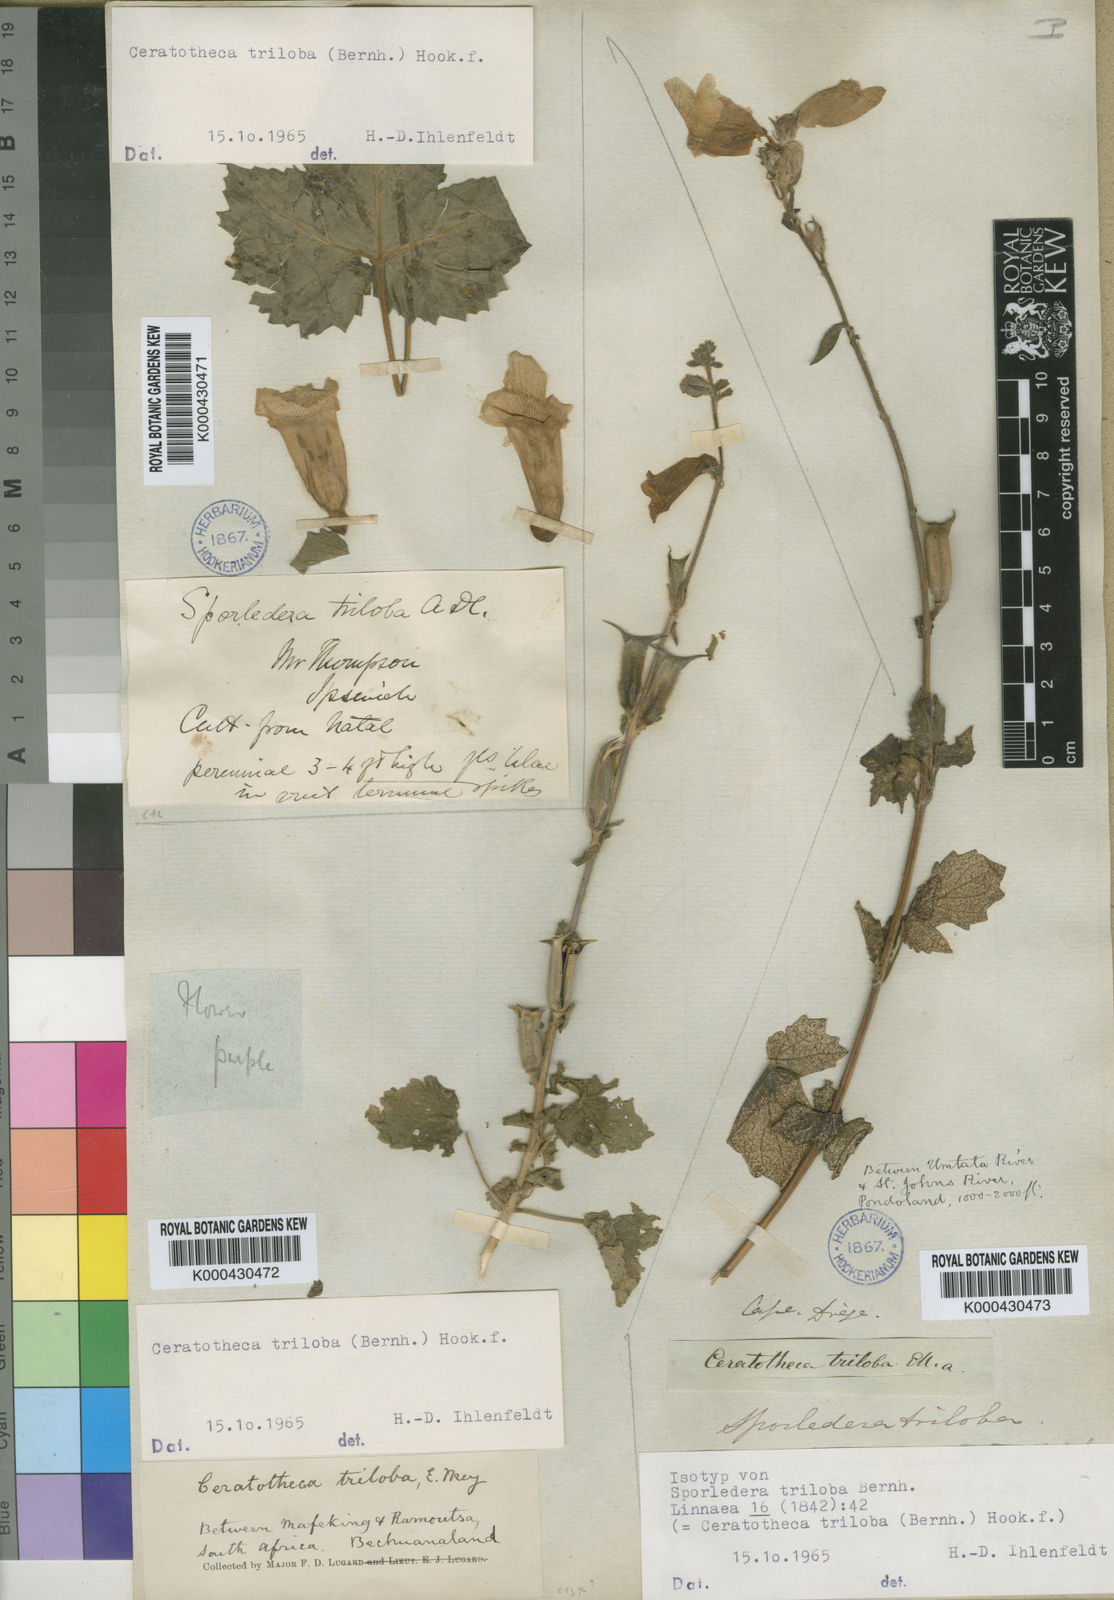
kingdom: Plantae
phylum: Tracheophyta
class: Magnoliopsida
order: Lamiales
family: Pedaliaceae
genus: Sesamum
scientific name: Sesamum trilobum
